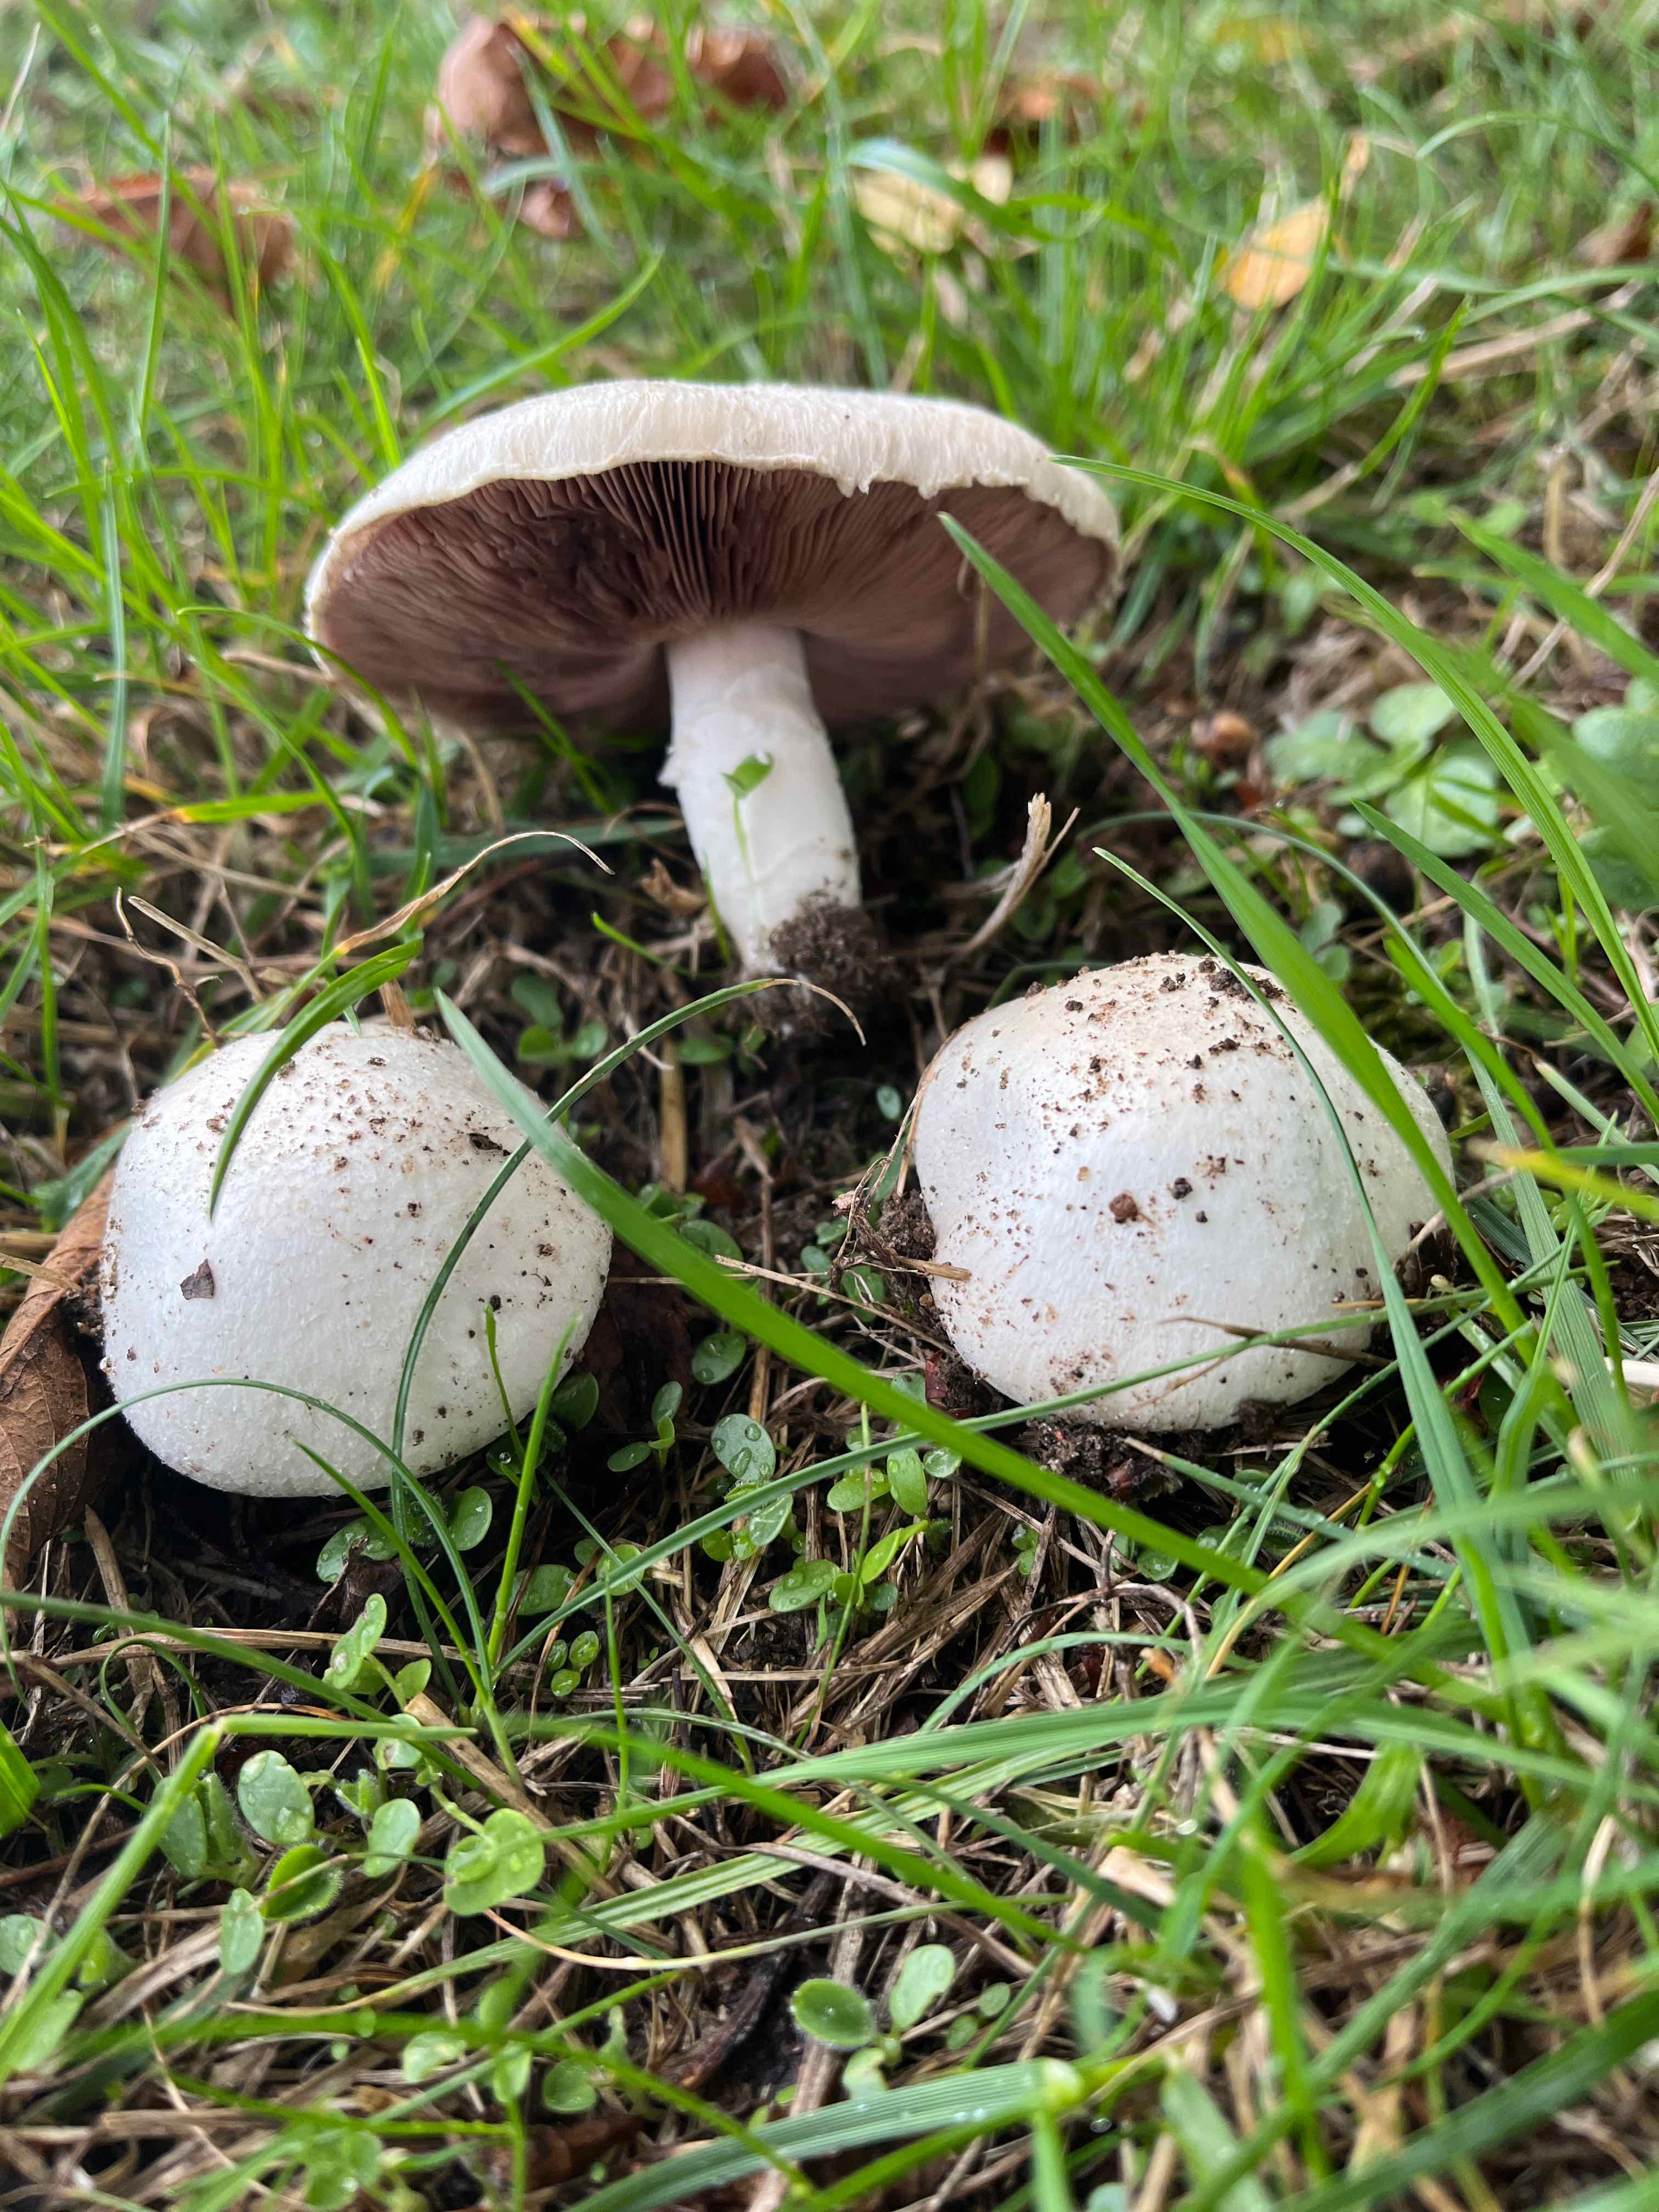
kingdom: Fungi
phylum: Basidiomycota
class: Agaricomycetes
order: Agaricales
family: Agaricaceae
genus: Agaricus
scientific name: Agaricus campestris
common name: mark-champignon
